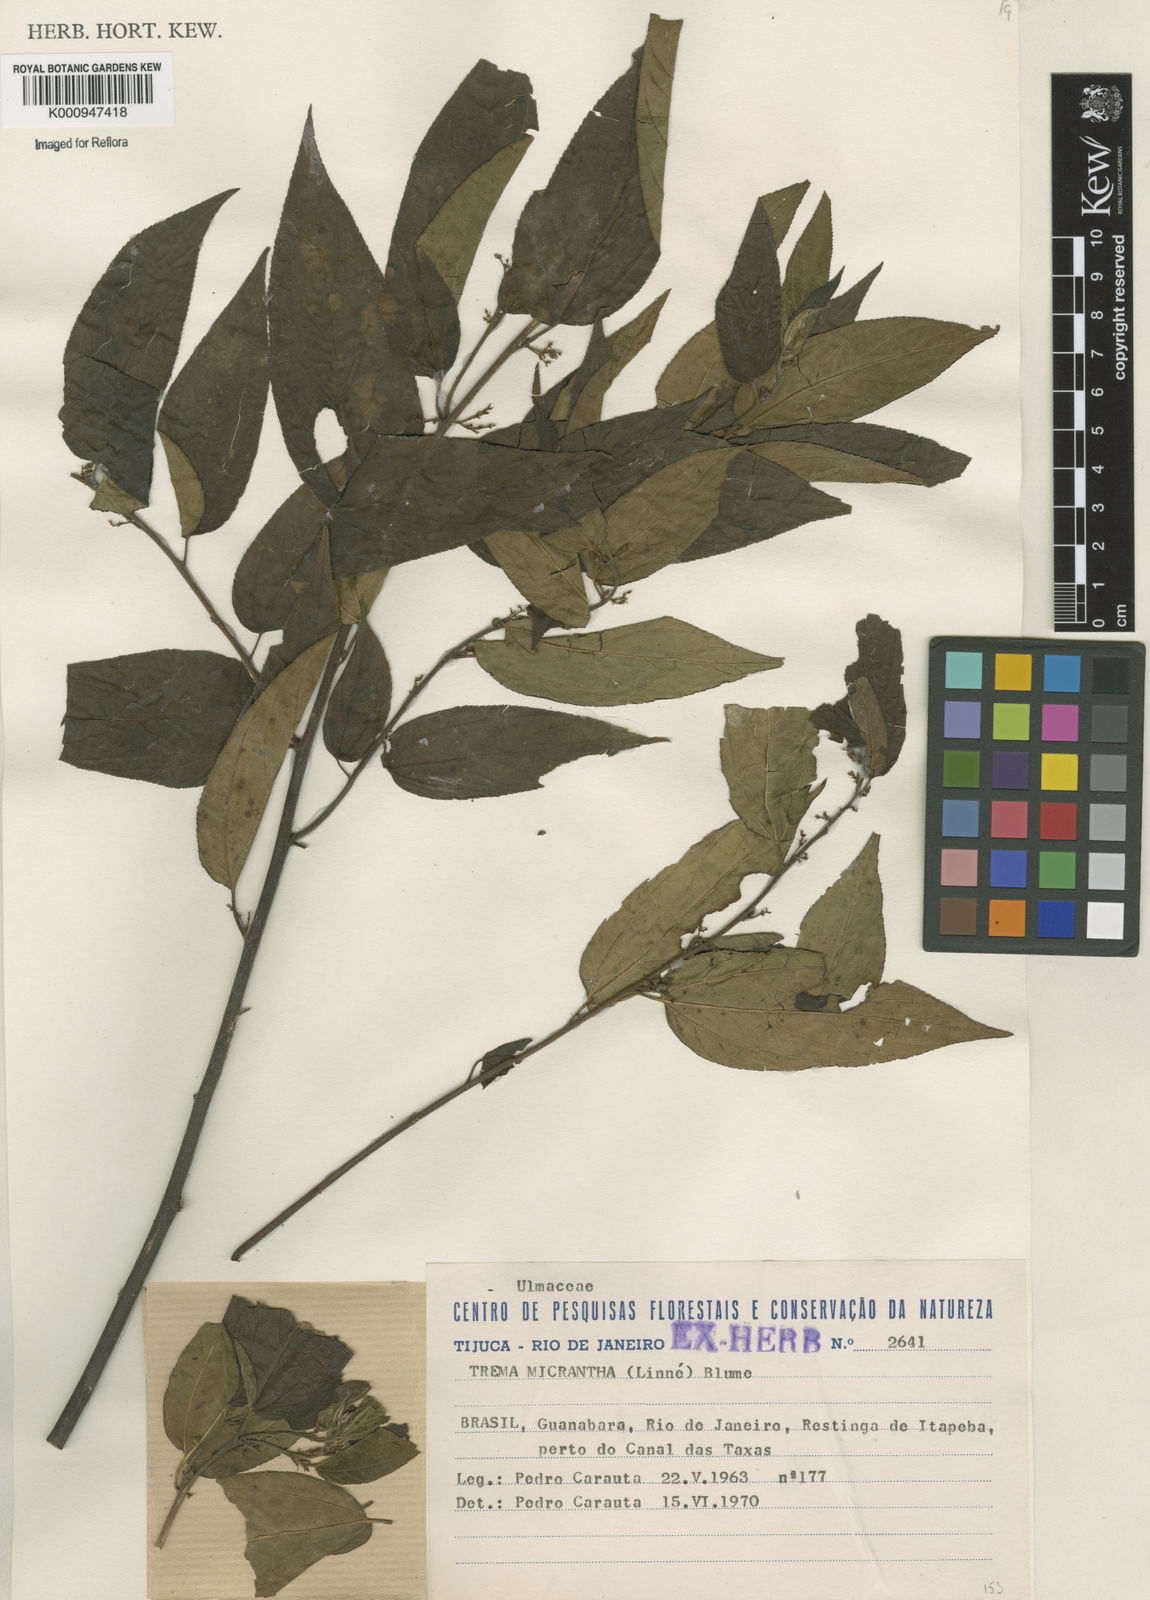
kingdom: Plantae
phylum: Tracheophyta
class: Magnoliopsida
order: Rosales
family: Cannabaceae
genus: Trema
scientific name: Trema micranthum
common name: Jamaican nettletree
